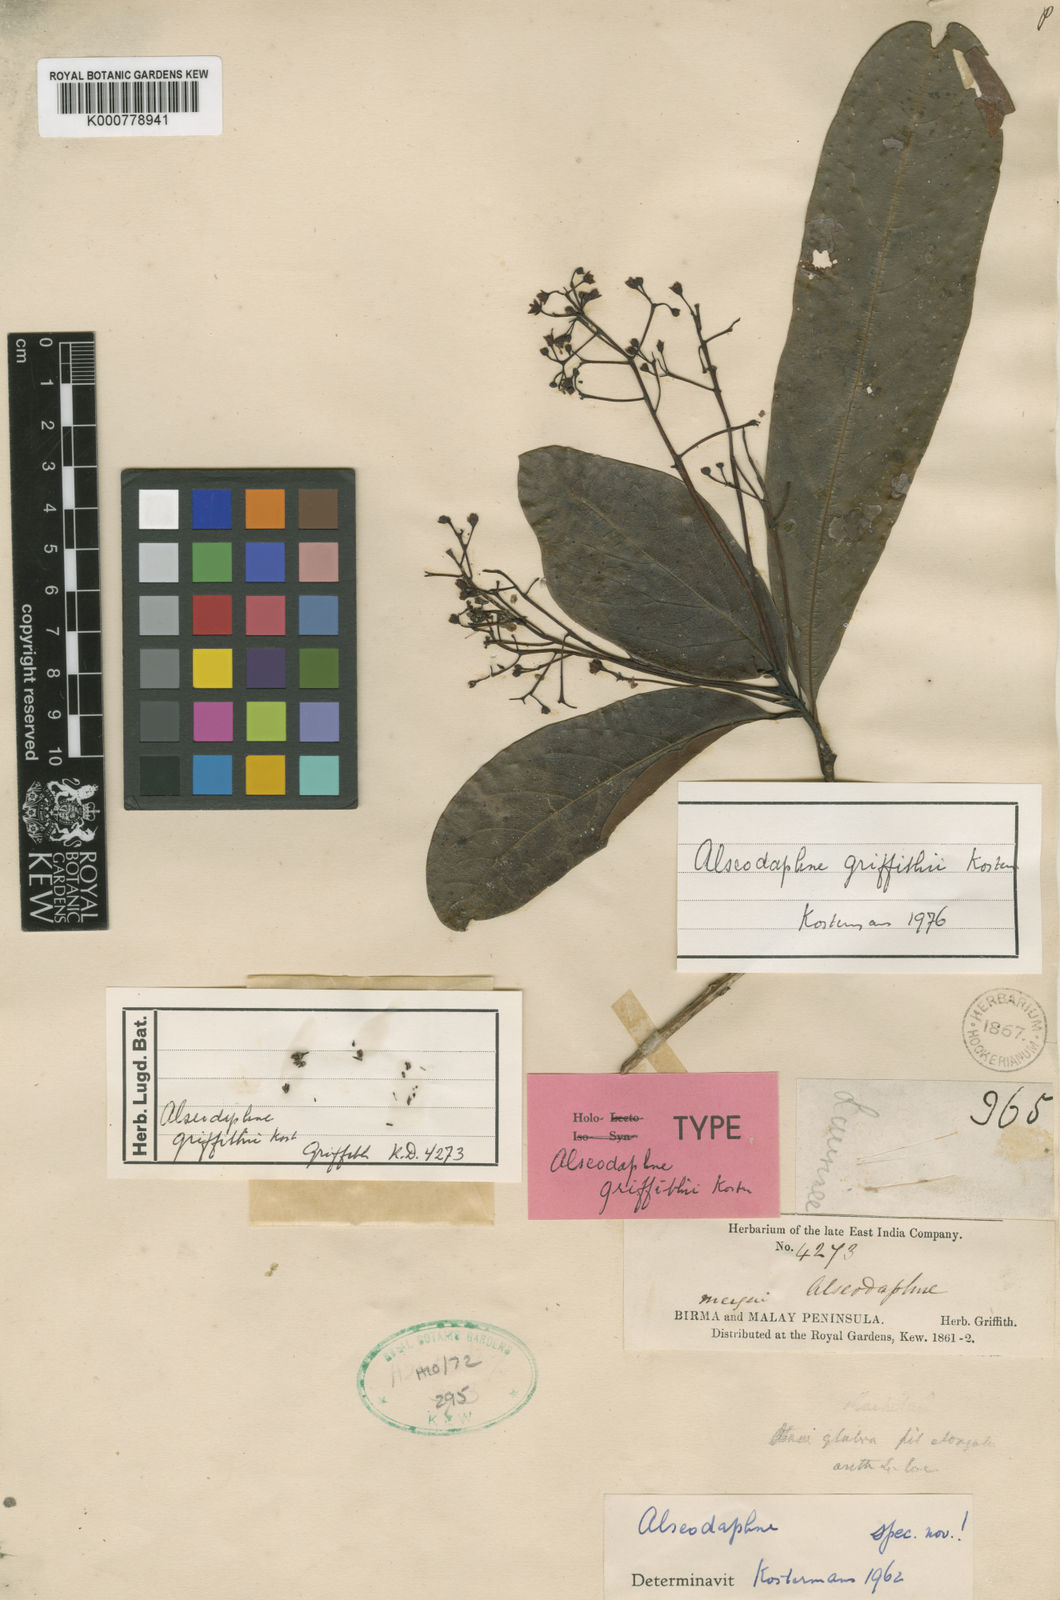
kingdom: Plantae
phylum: Tracheophyta
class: Magnoliopsida
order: Laurales
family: Lauraceae
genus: Alseodaphne
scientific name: Alseodaphne griffithii
